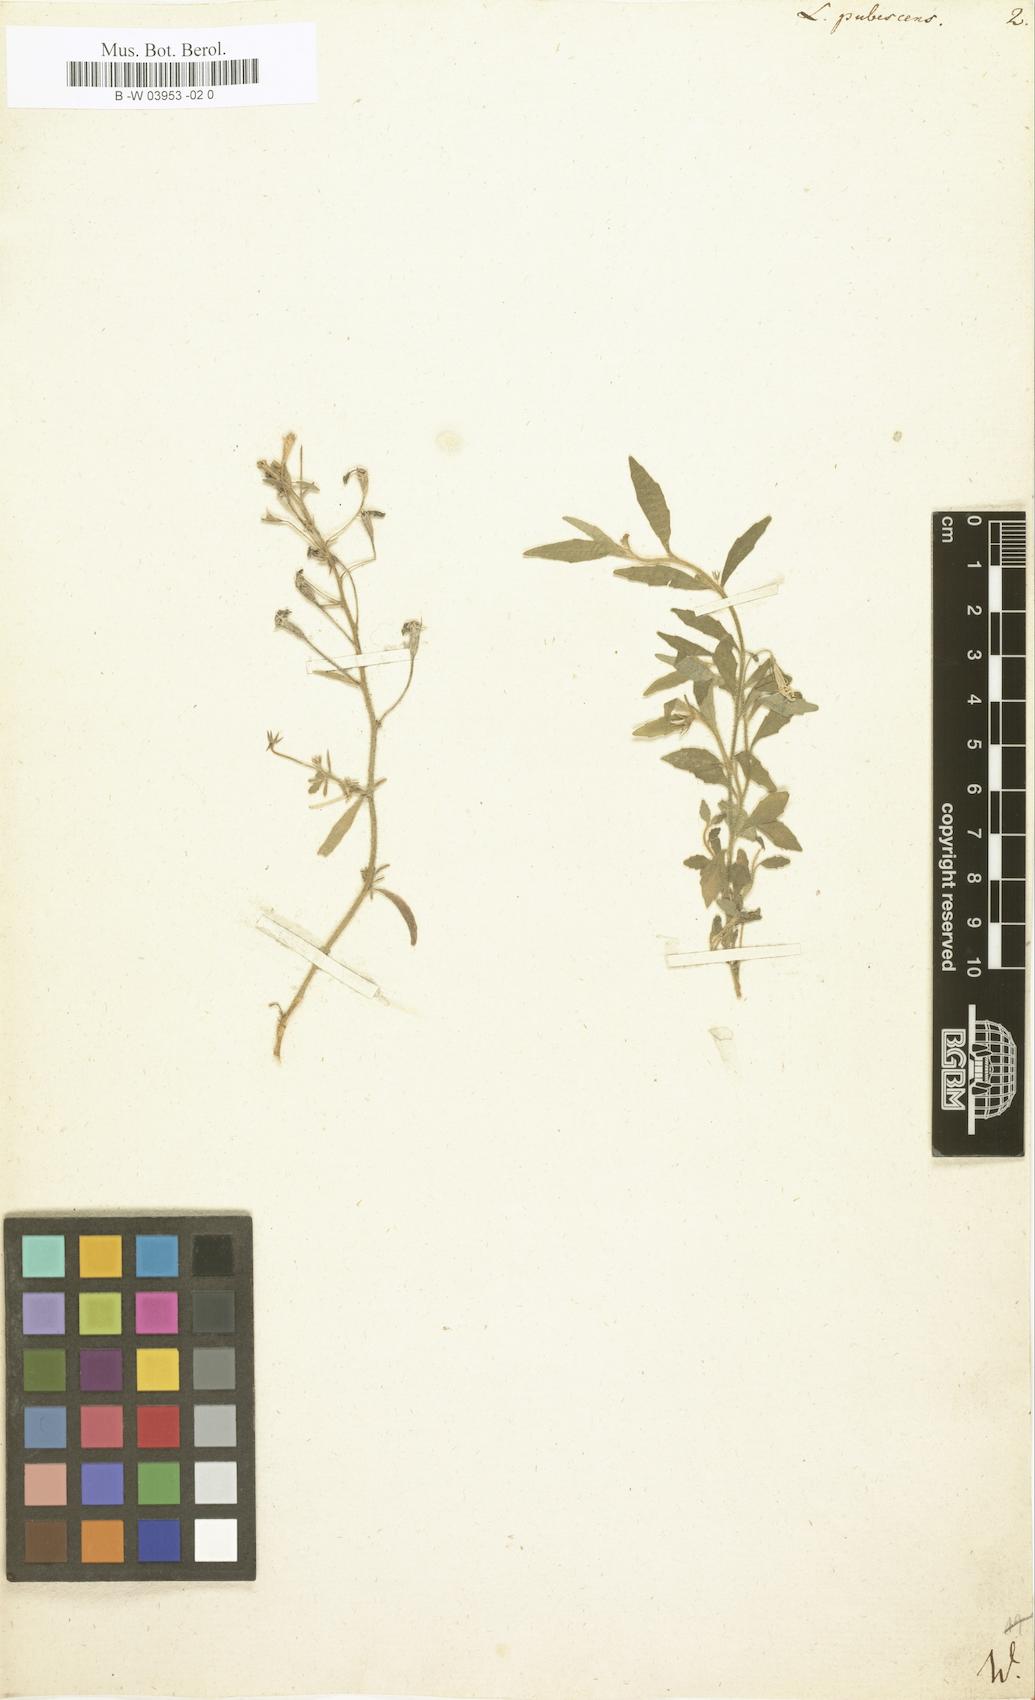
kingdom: Plantae
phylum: Tracheophyta
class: Magnoliopsida
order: Asterales
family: Campanulaceae
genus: Lobelia
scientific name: Lobelia pubescens
